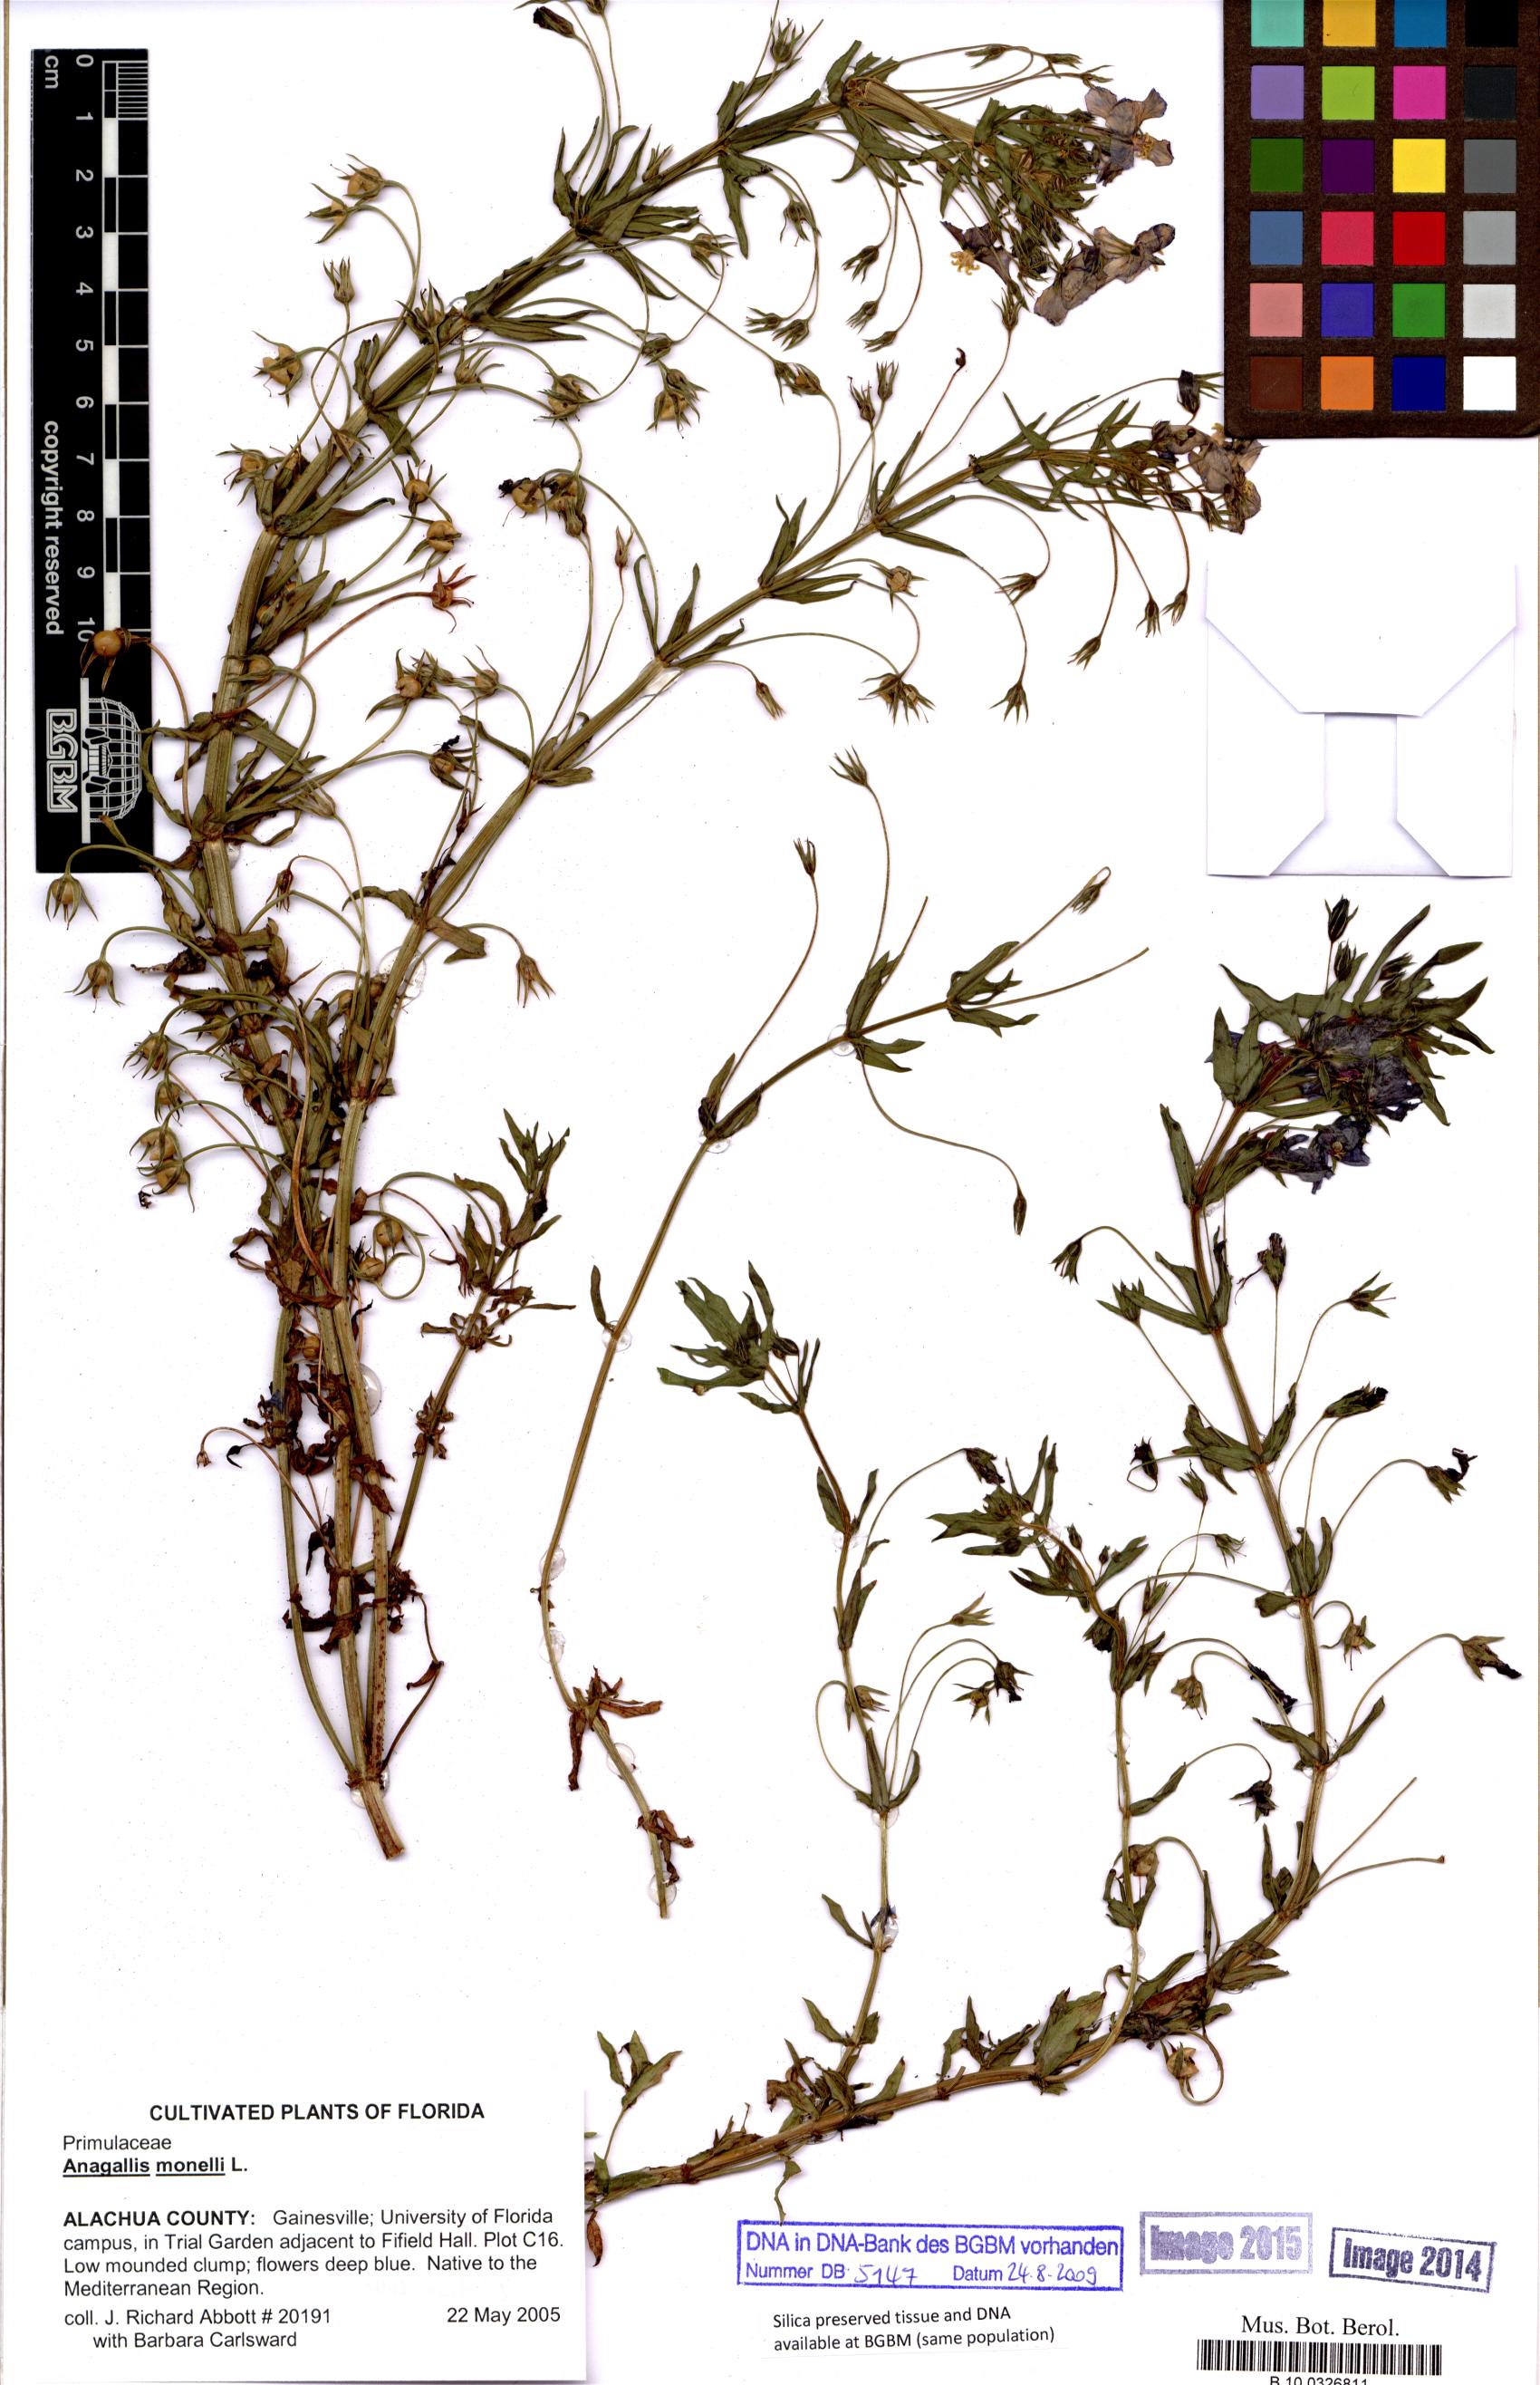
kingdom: Plantae
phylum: Tracheophyta
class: Magnoliopsida
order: Ericales
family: Primulaceae
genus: Lysimachia
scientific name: Lysimachia monelli
